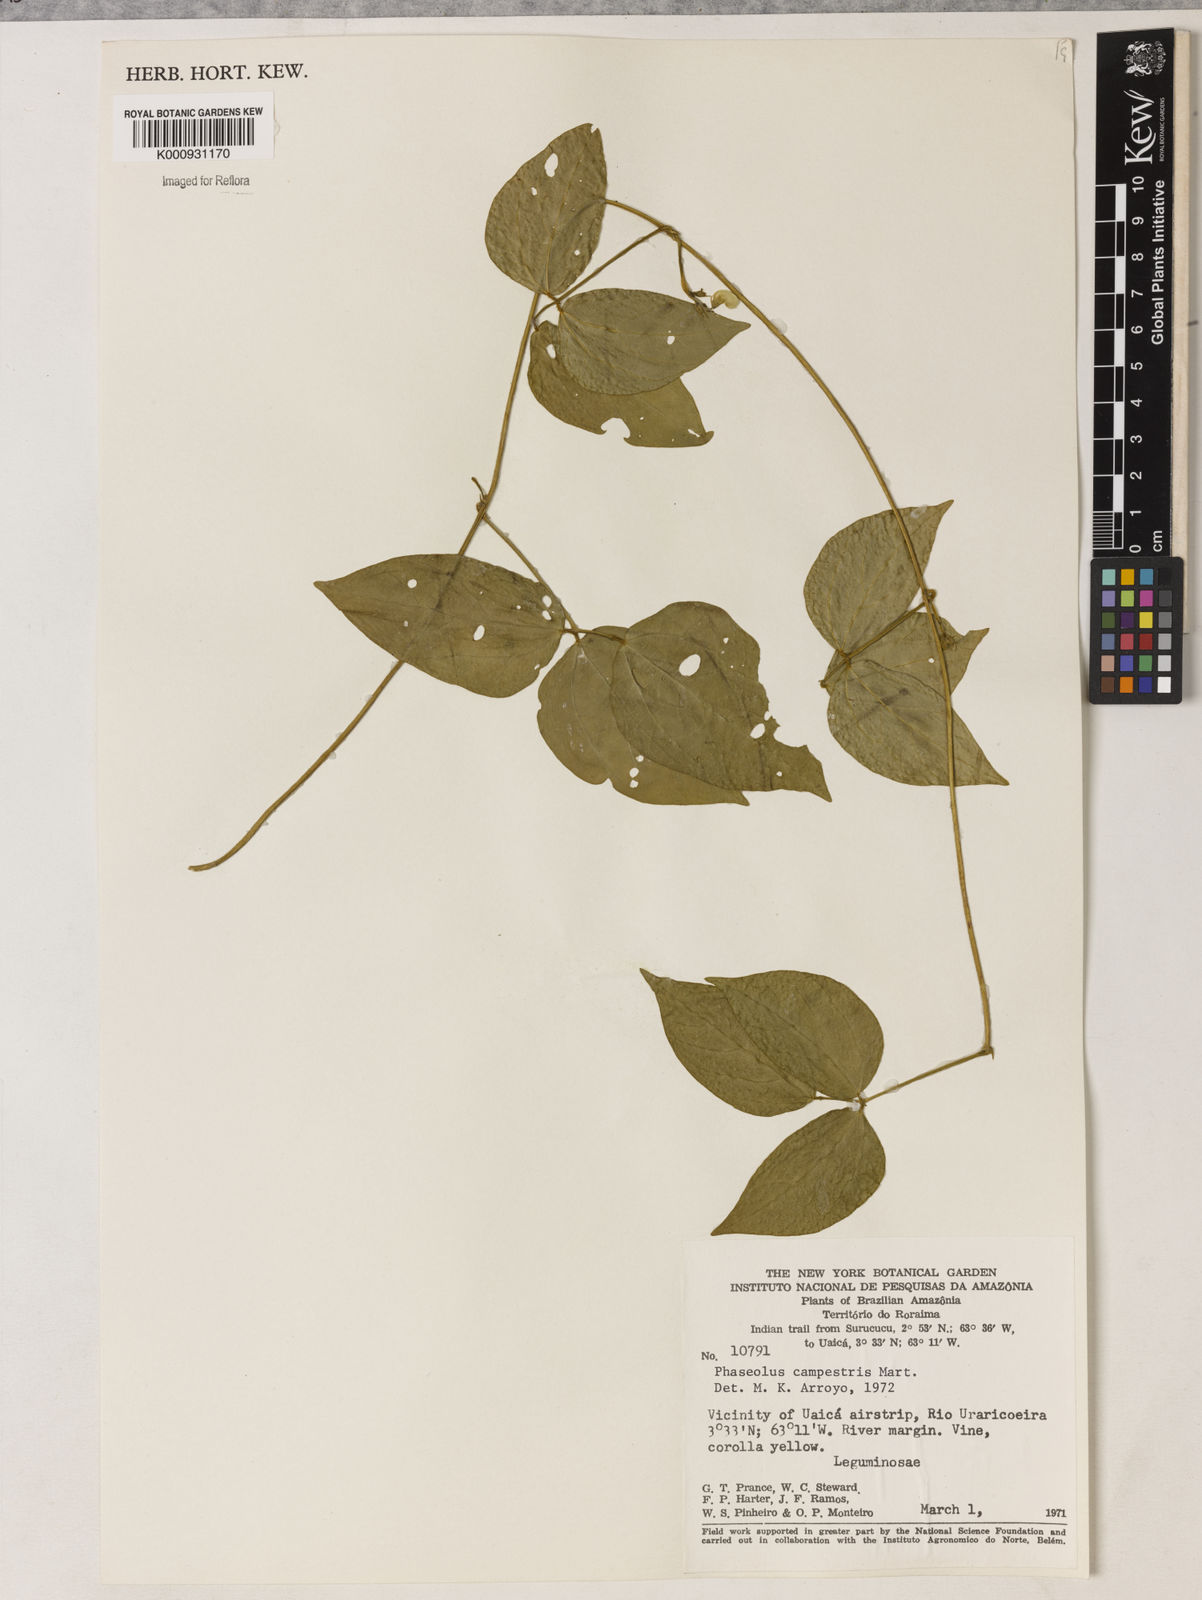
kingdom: Plantae
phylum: Tracheophyta
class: Magnoliopsida
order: Fabales
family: Fabaceae
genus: Vigna
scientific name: Vigna juruana
